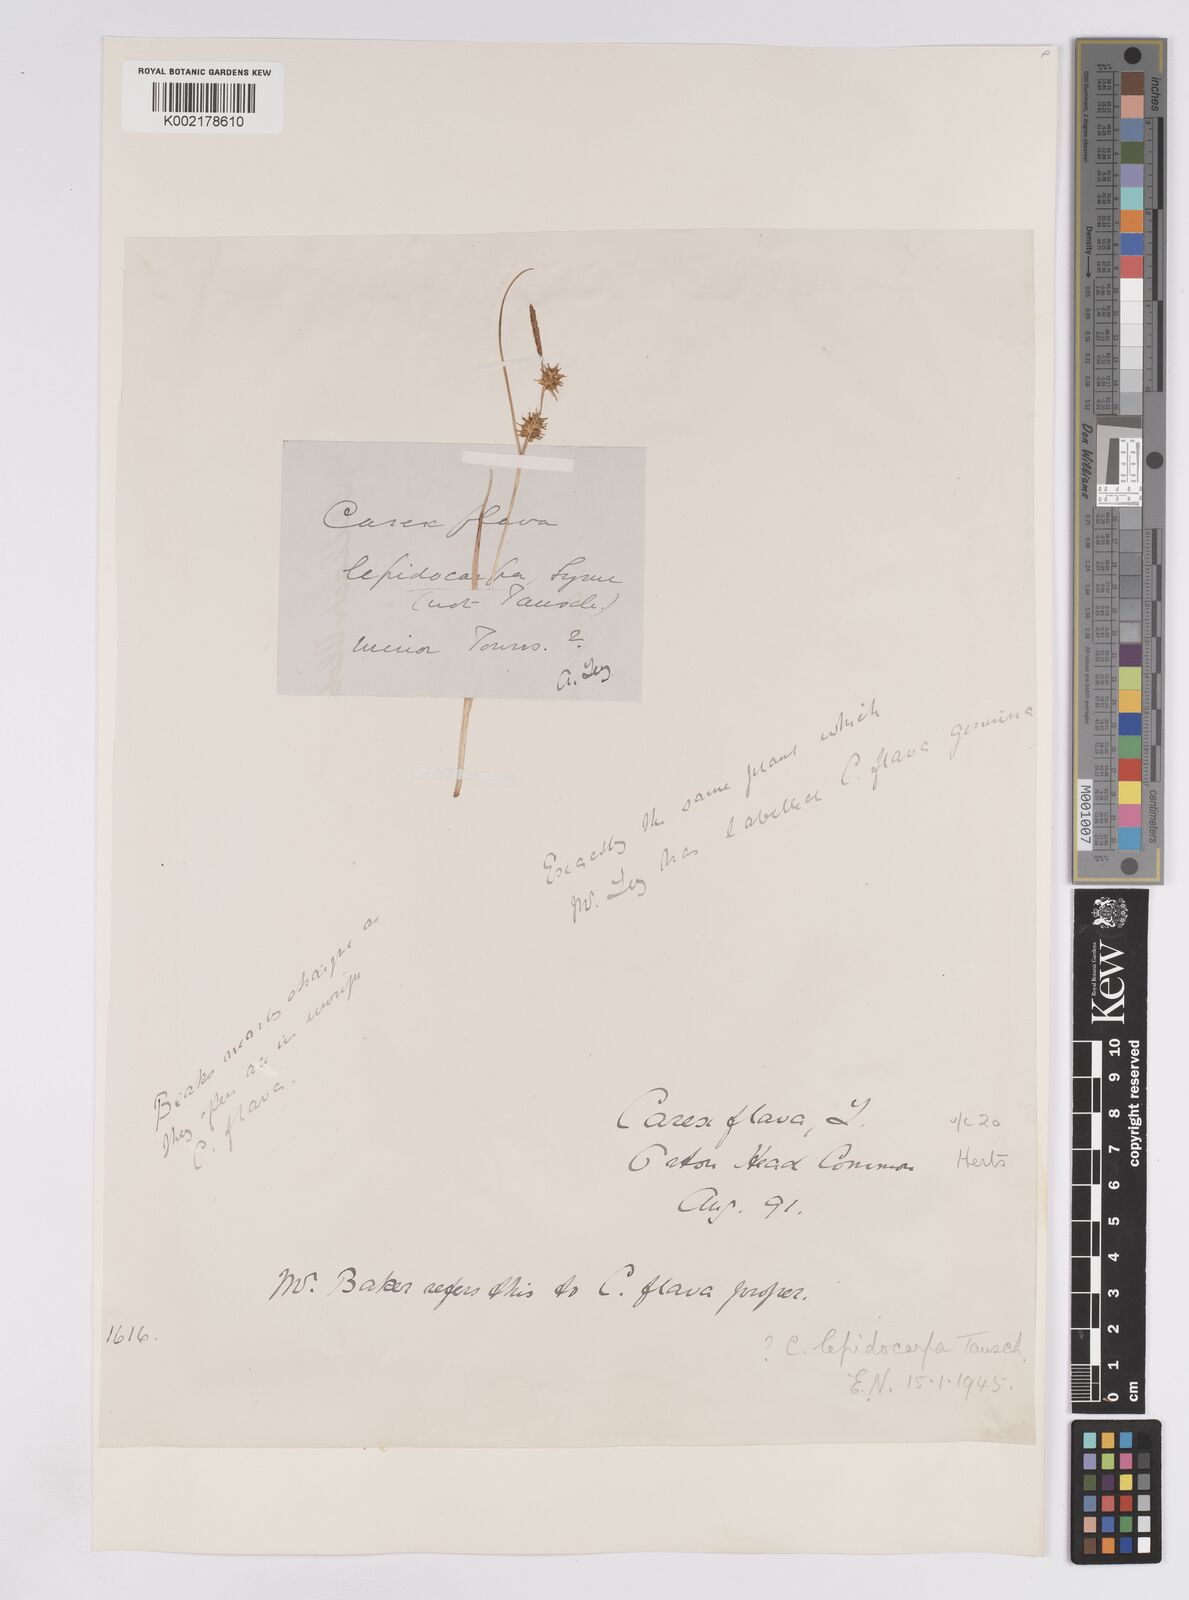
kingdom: Plantae
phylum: Tracheophyta
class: Liliopsida
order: Poales
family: Cyperaceae
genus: Carex
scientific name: Carex lepidocarpa
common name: Long-stalked yellow-sedge
